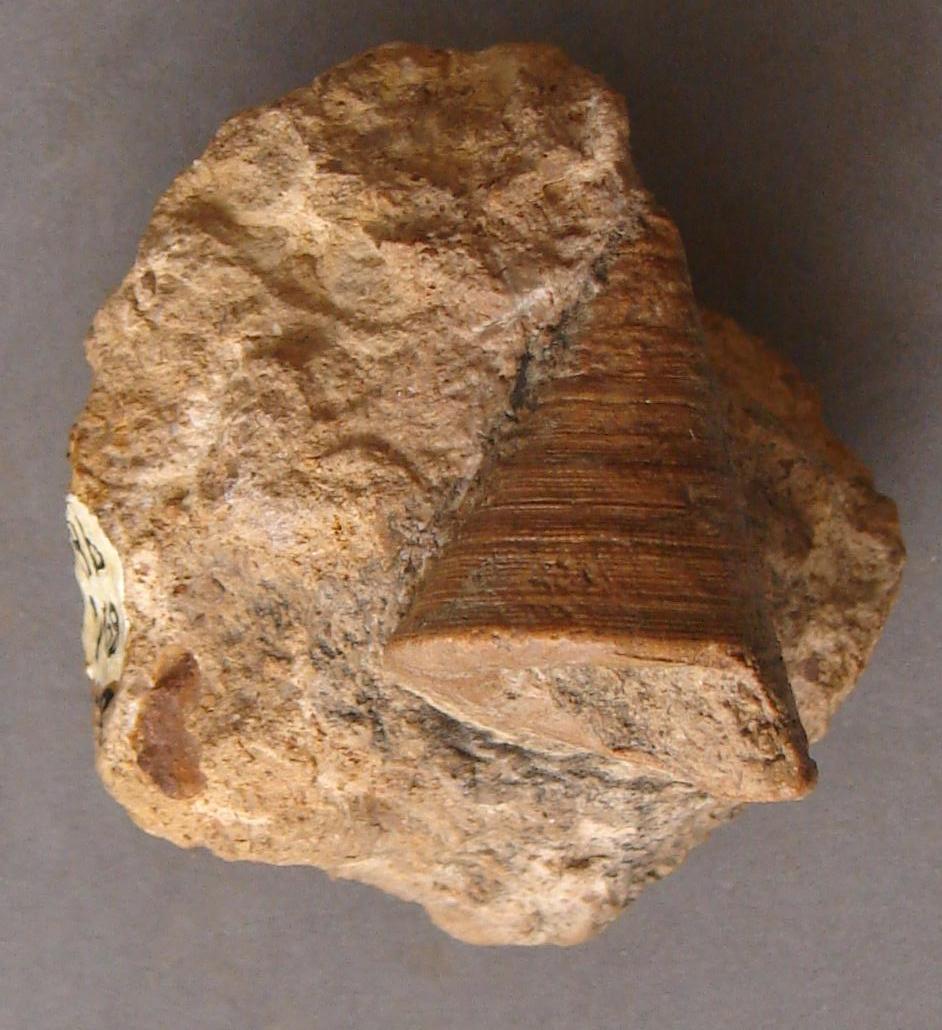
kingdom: Animalia
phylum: Mollusca
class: Gastropoda
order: Pleurotomariida
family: Pleurotomariidae
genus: Leptomaria
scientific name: Leptomaria Trochus punctatus
